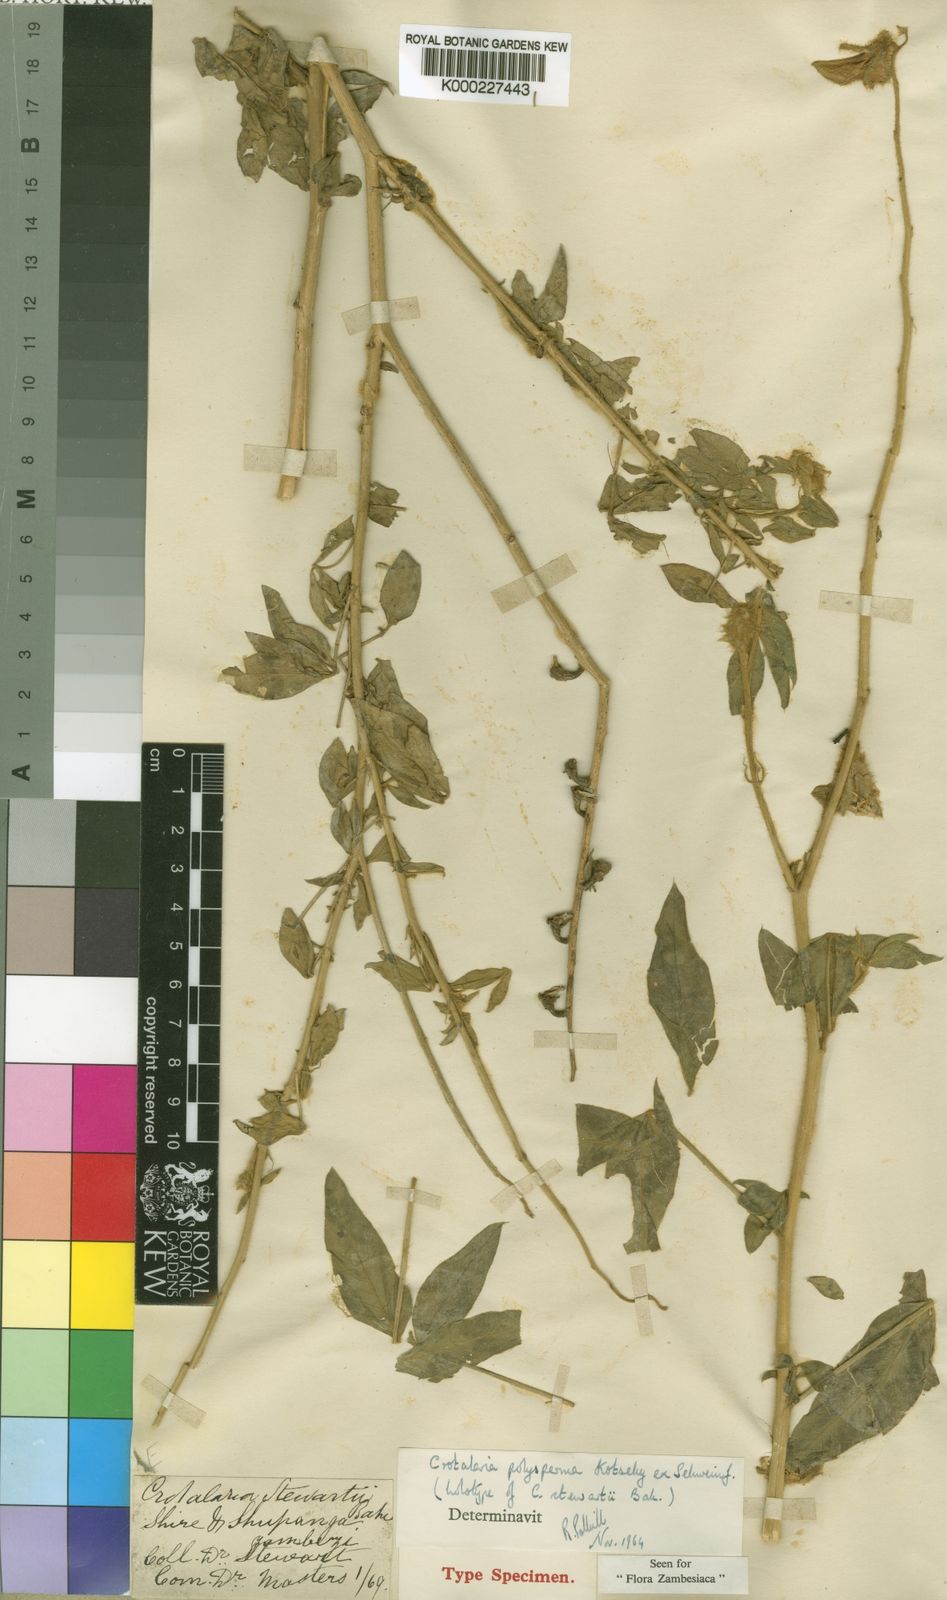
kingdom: Plantae
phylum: Tracheophyta
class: Magnoliopsida
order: Fabales
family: Fabaceae
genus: Crotalaria
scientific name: Crotalaria polysperma
